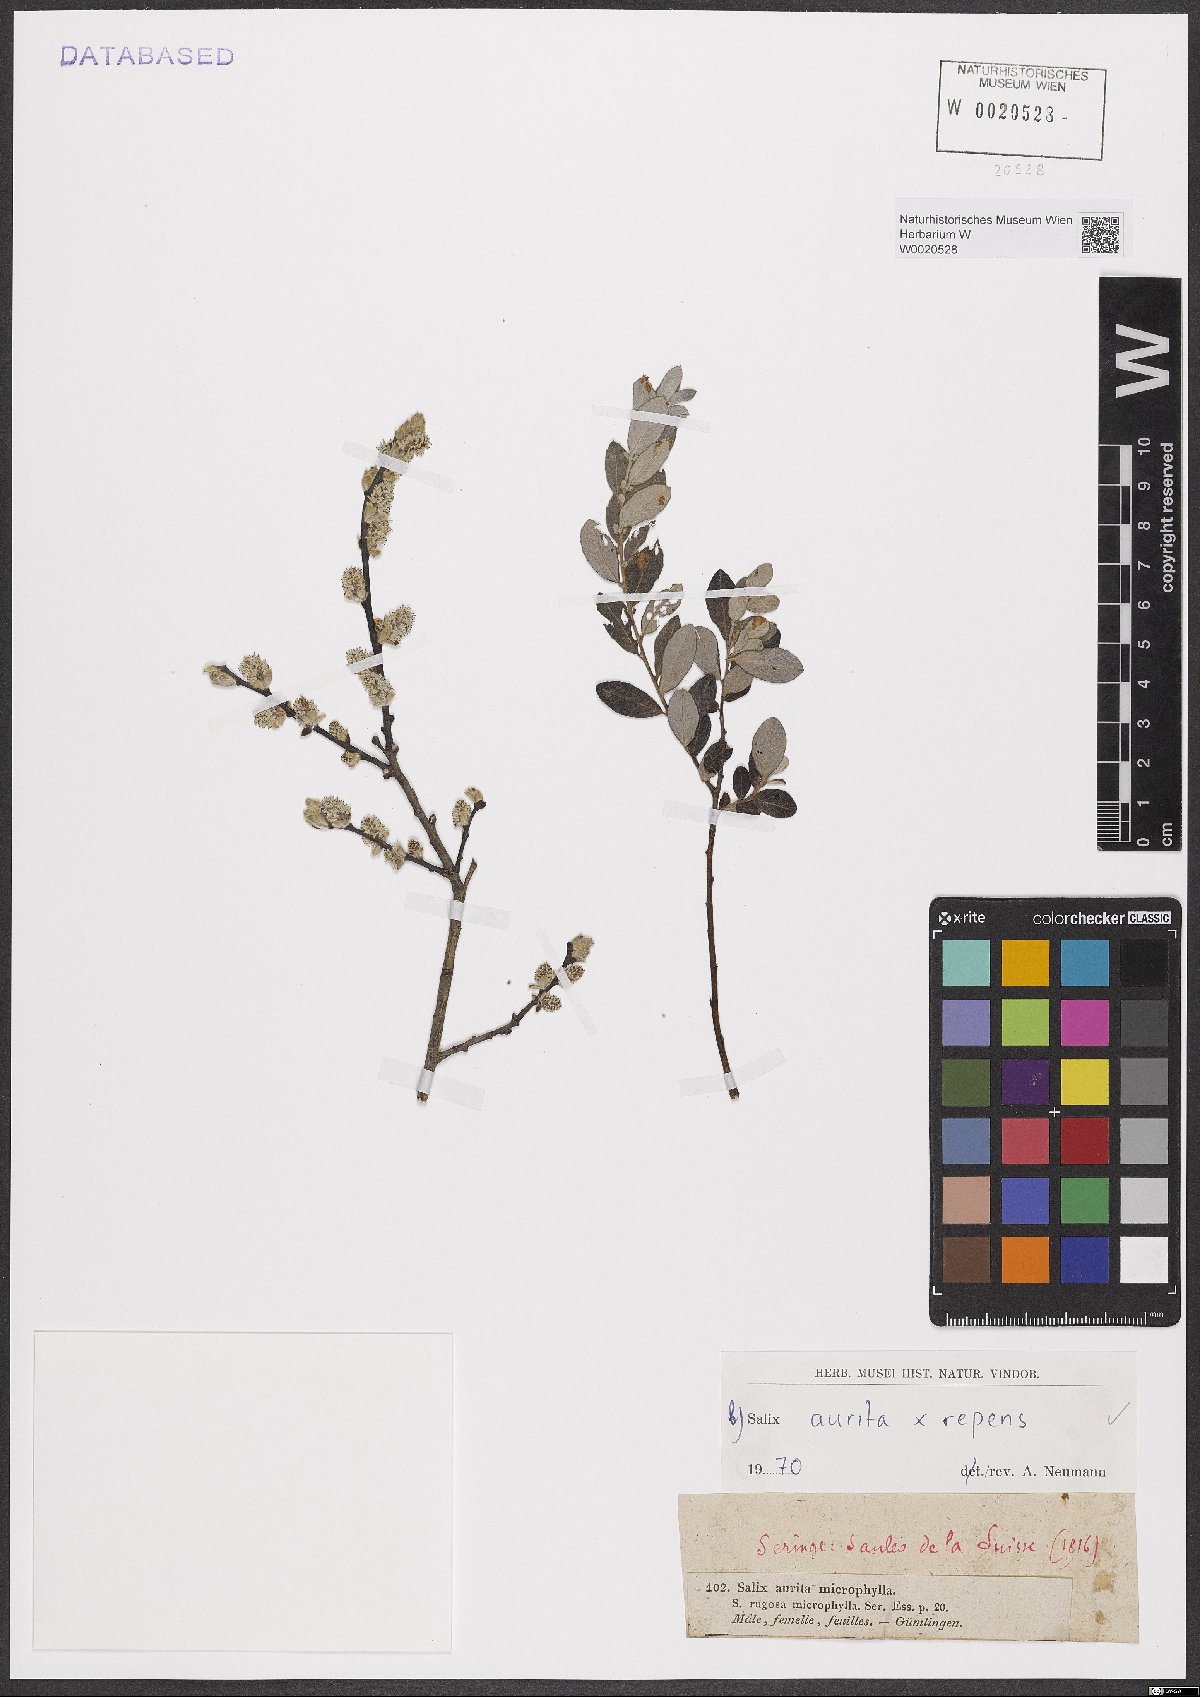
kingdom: Plantae
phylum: Tracheophyta
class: Magnoliopsida
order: Malpighiales
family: Salicaceae
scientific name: Salicaceae
